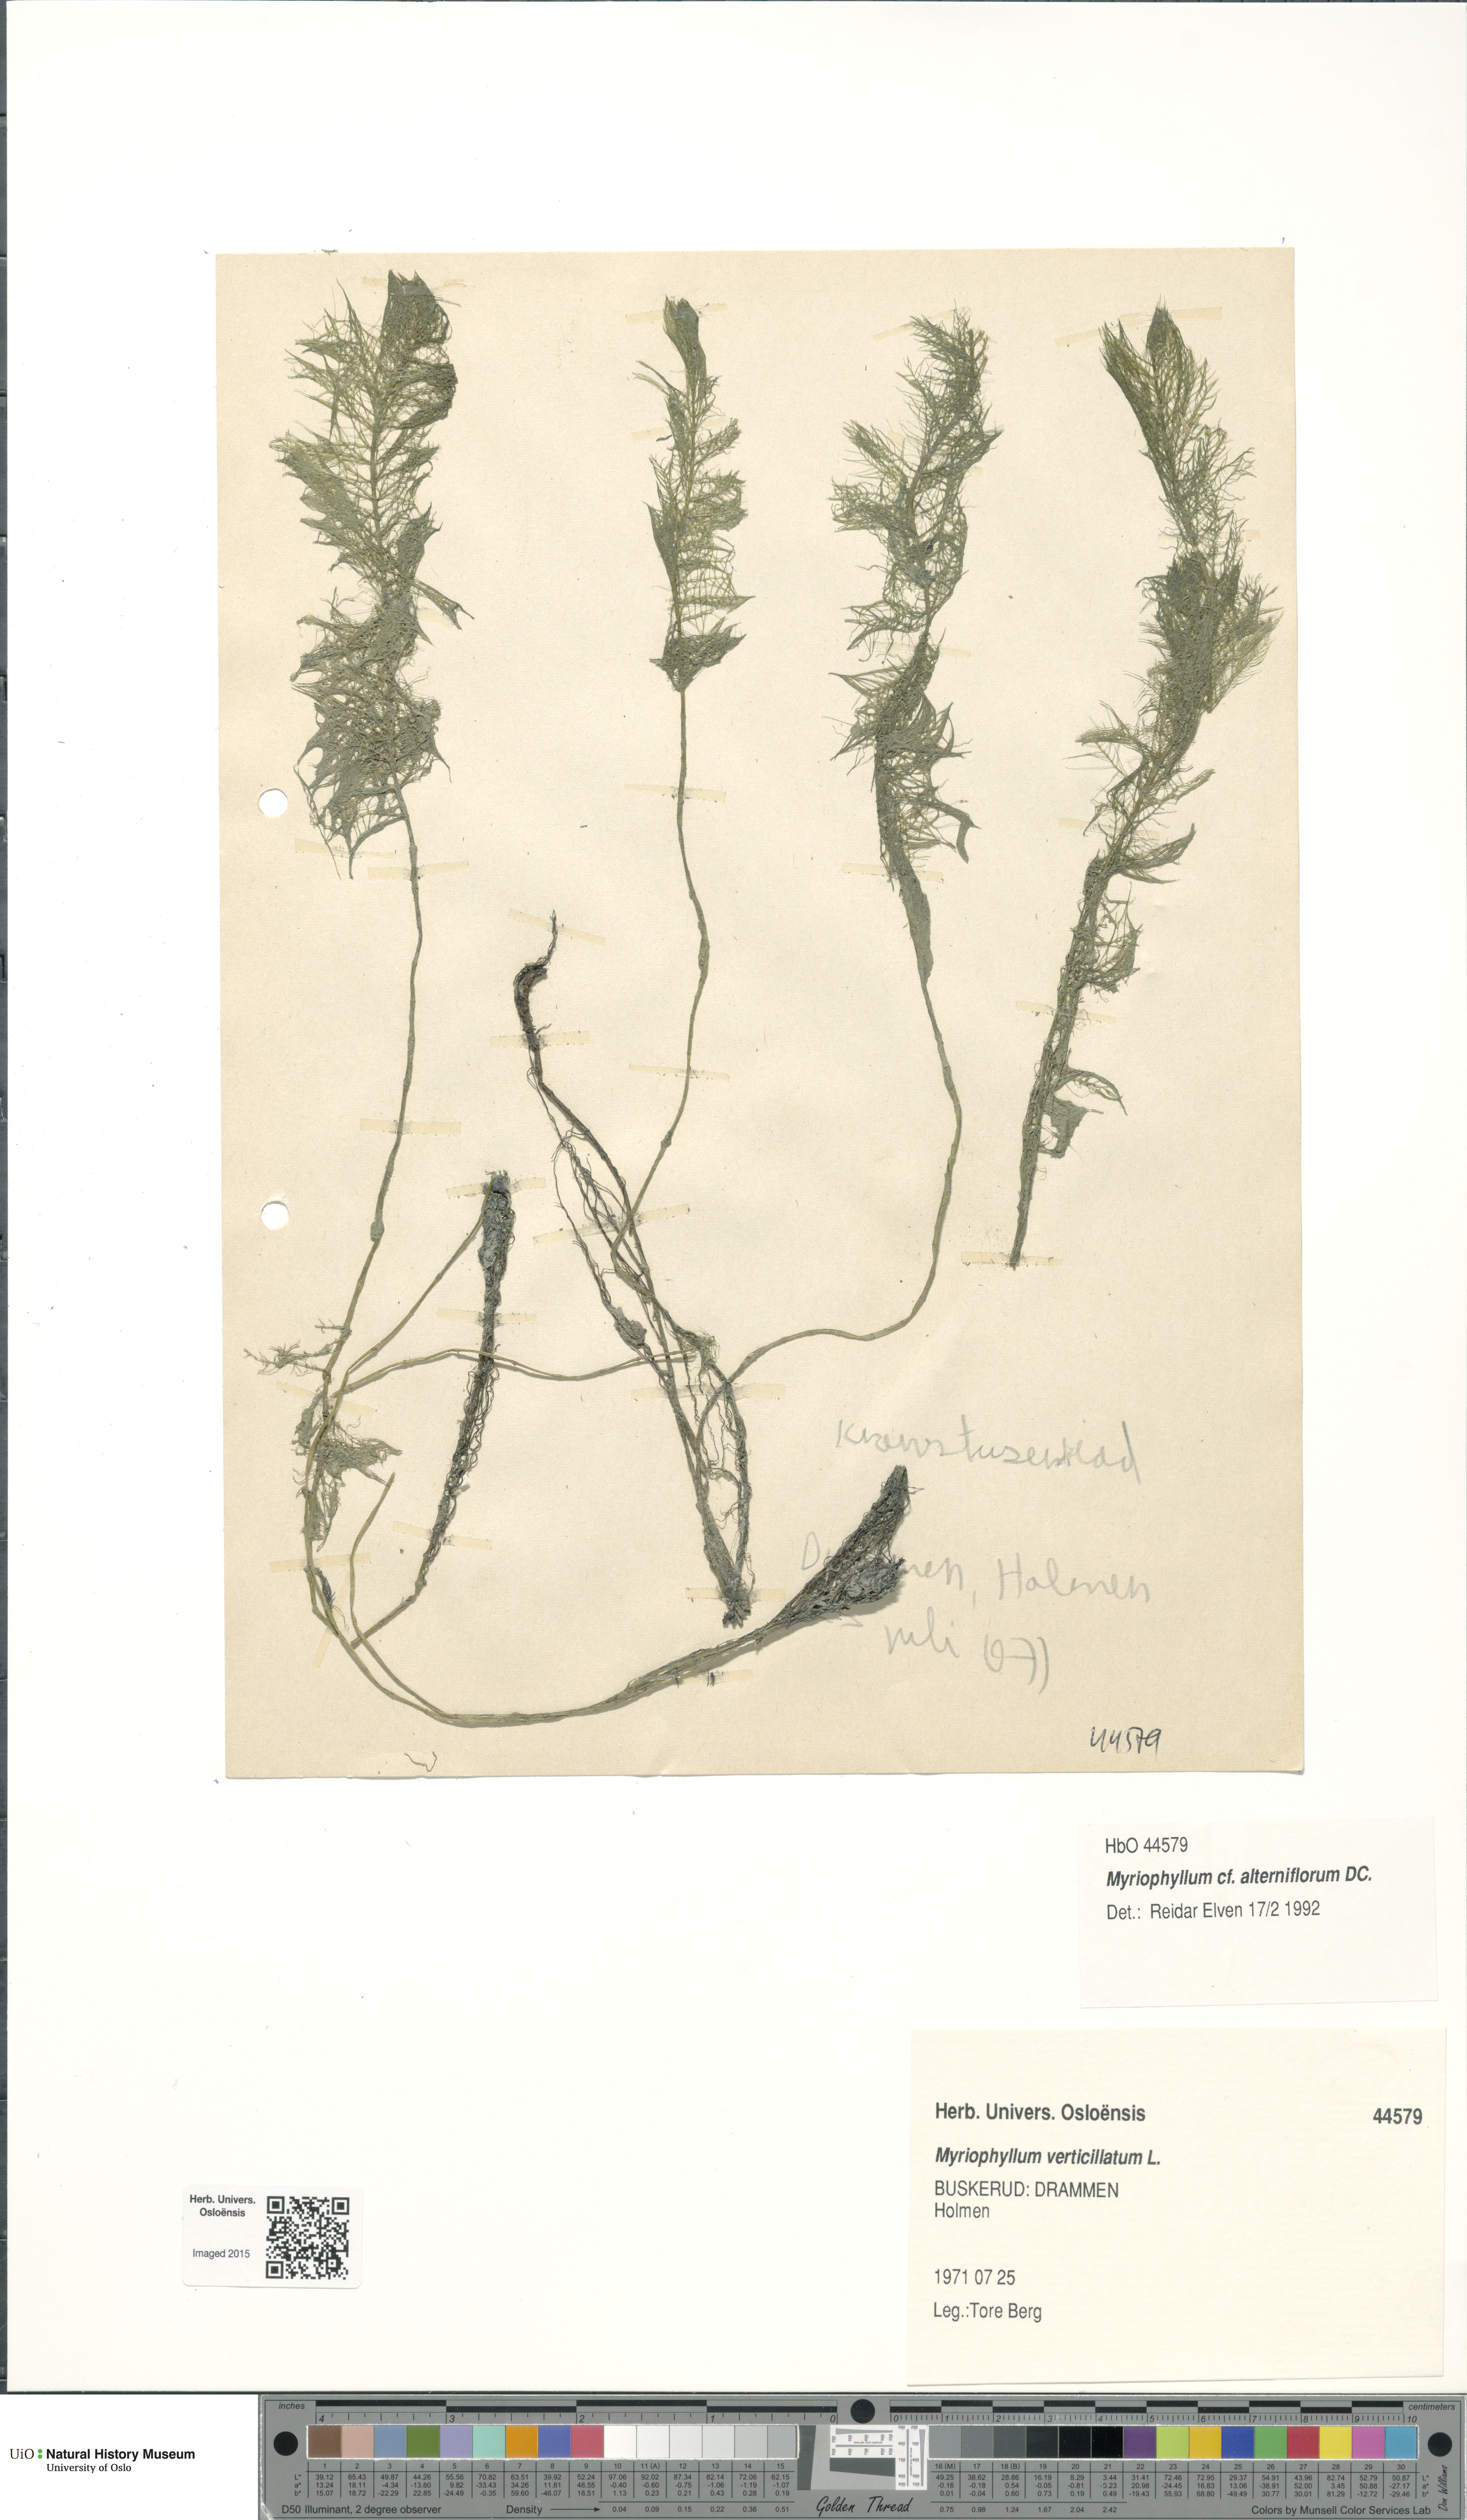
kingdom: Plantae
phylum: Tracheophyta
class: Magnoliopsida
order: Saxifragales
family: Haloragaceae
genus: Myriophyllum
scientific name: Myriophyllum alterniflorum
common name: Alternate water-milfoil
